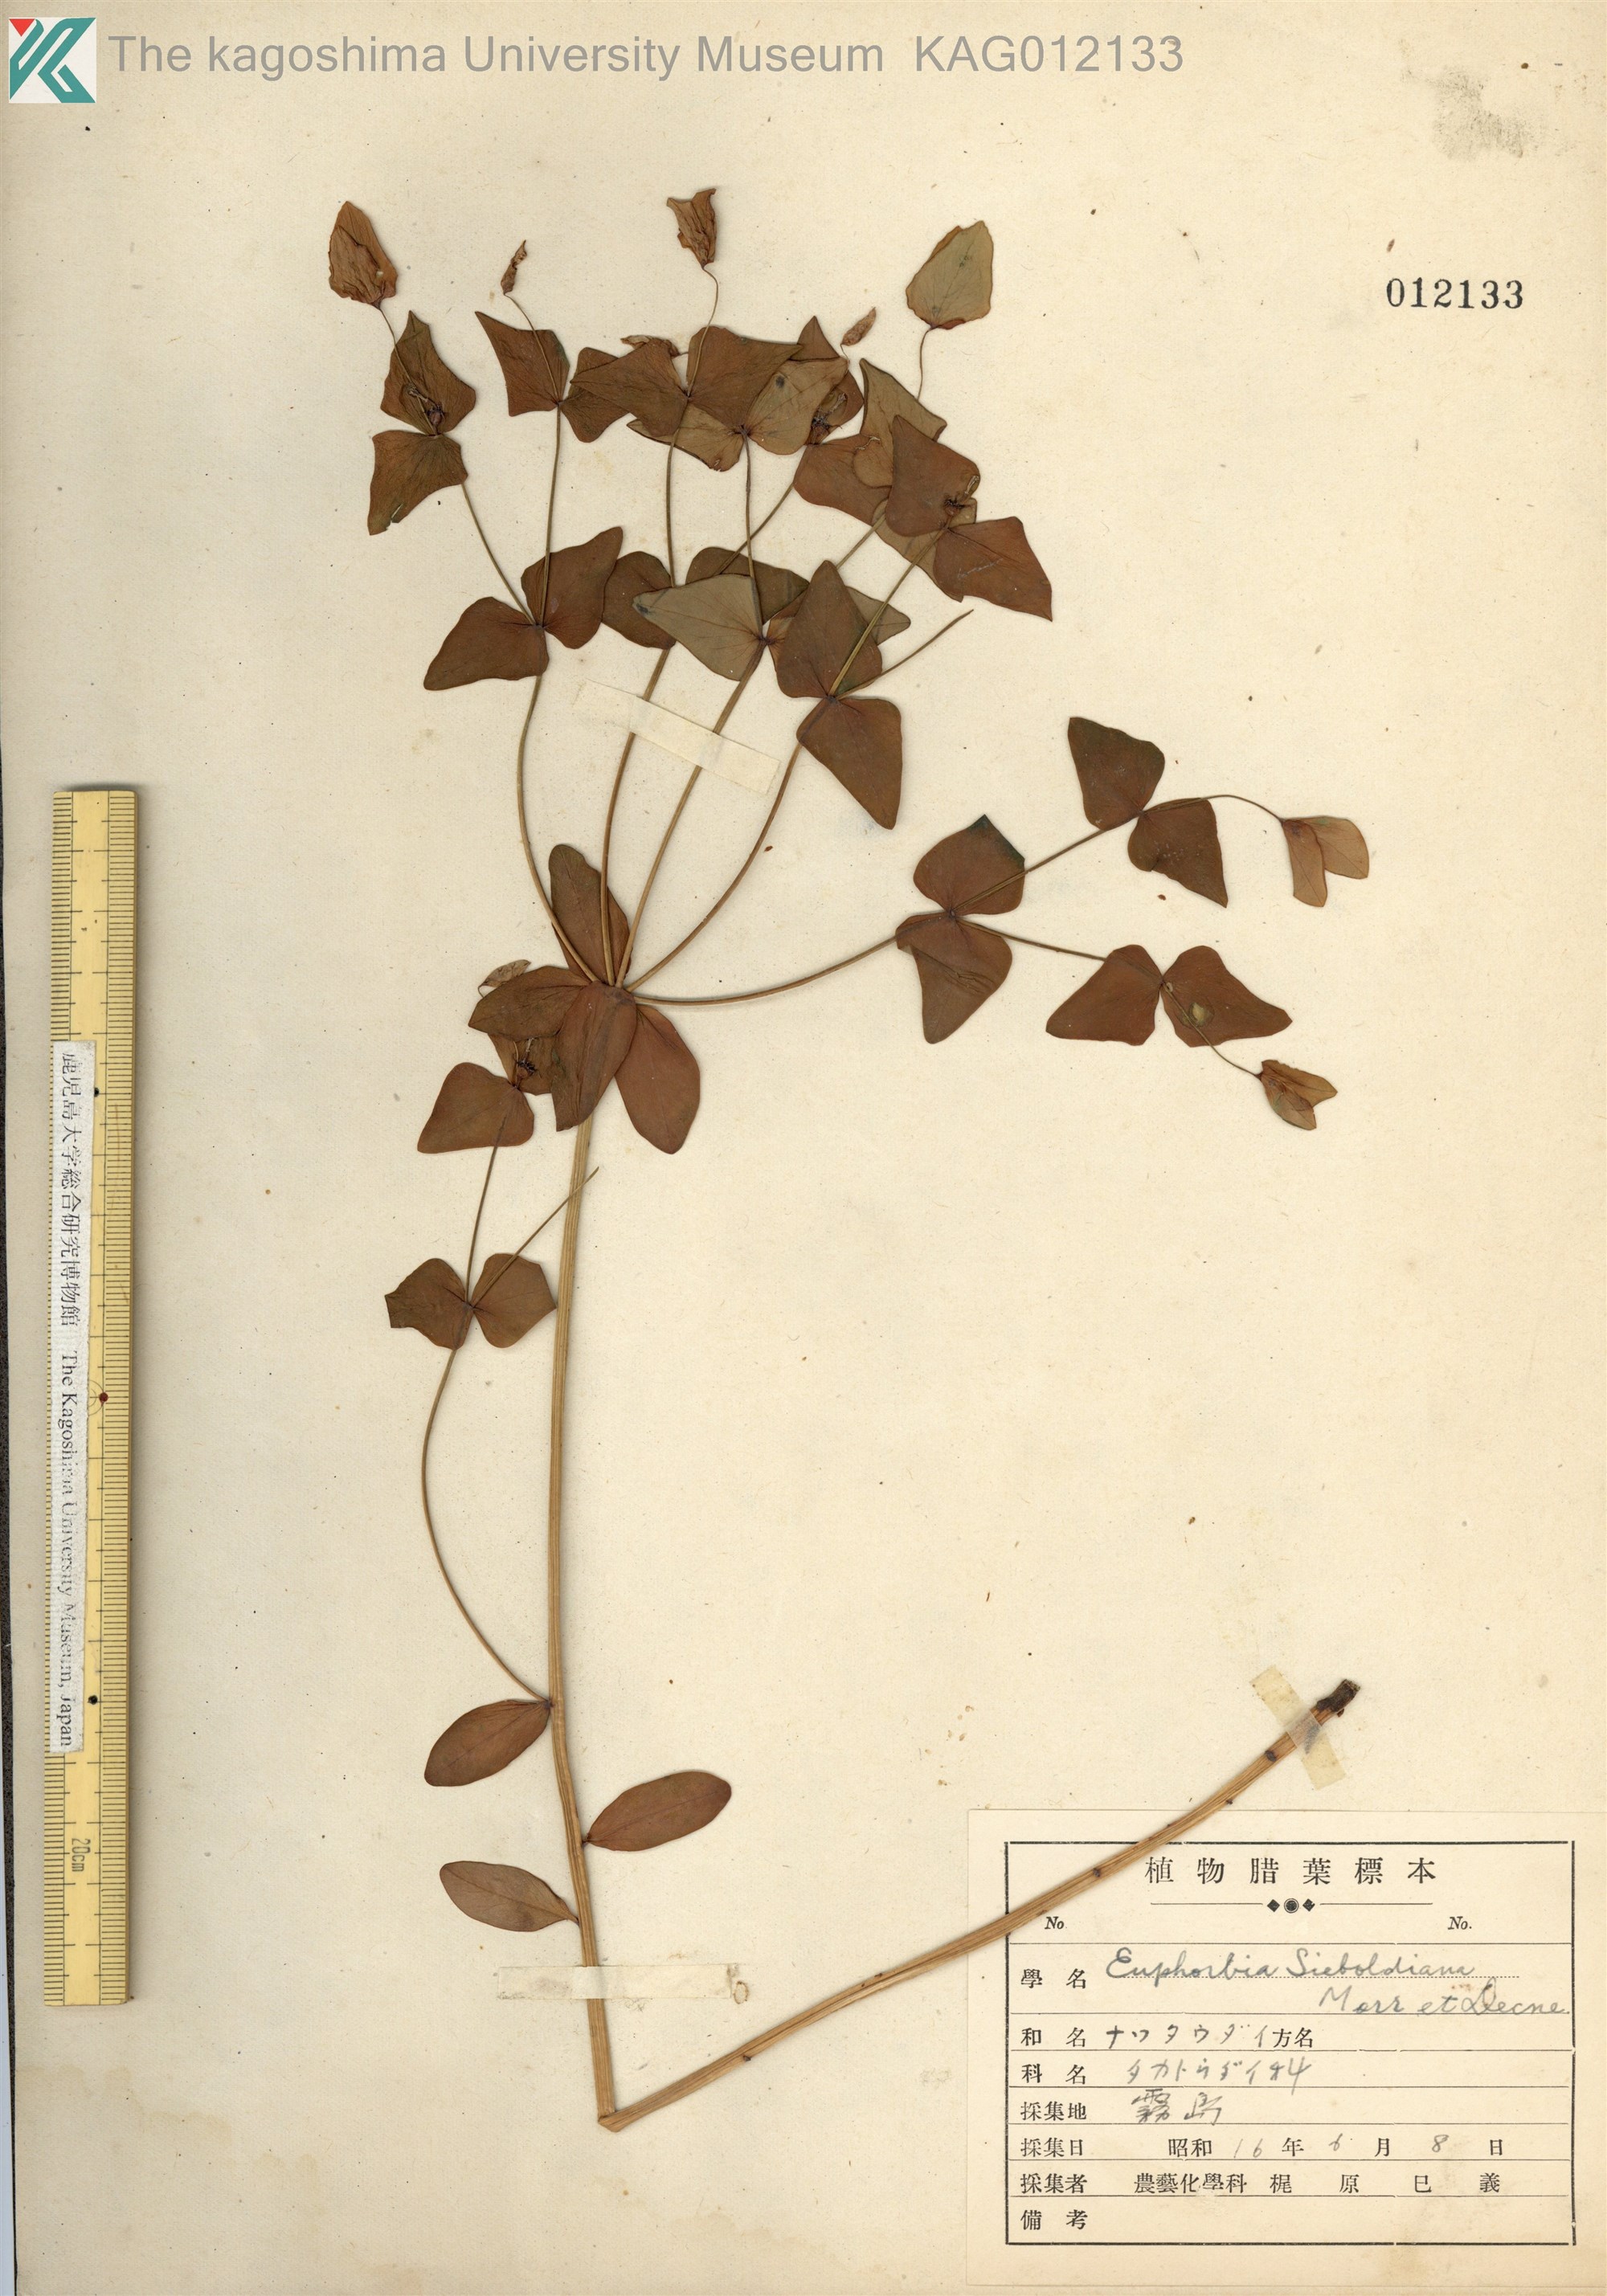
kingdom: Plantae
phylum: Tracheophyta
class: Magnoliopsida
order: Malpighiales
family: Euphorbiaceae
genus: Euphorbia
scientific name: Euphorbia sieboldiana
